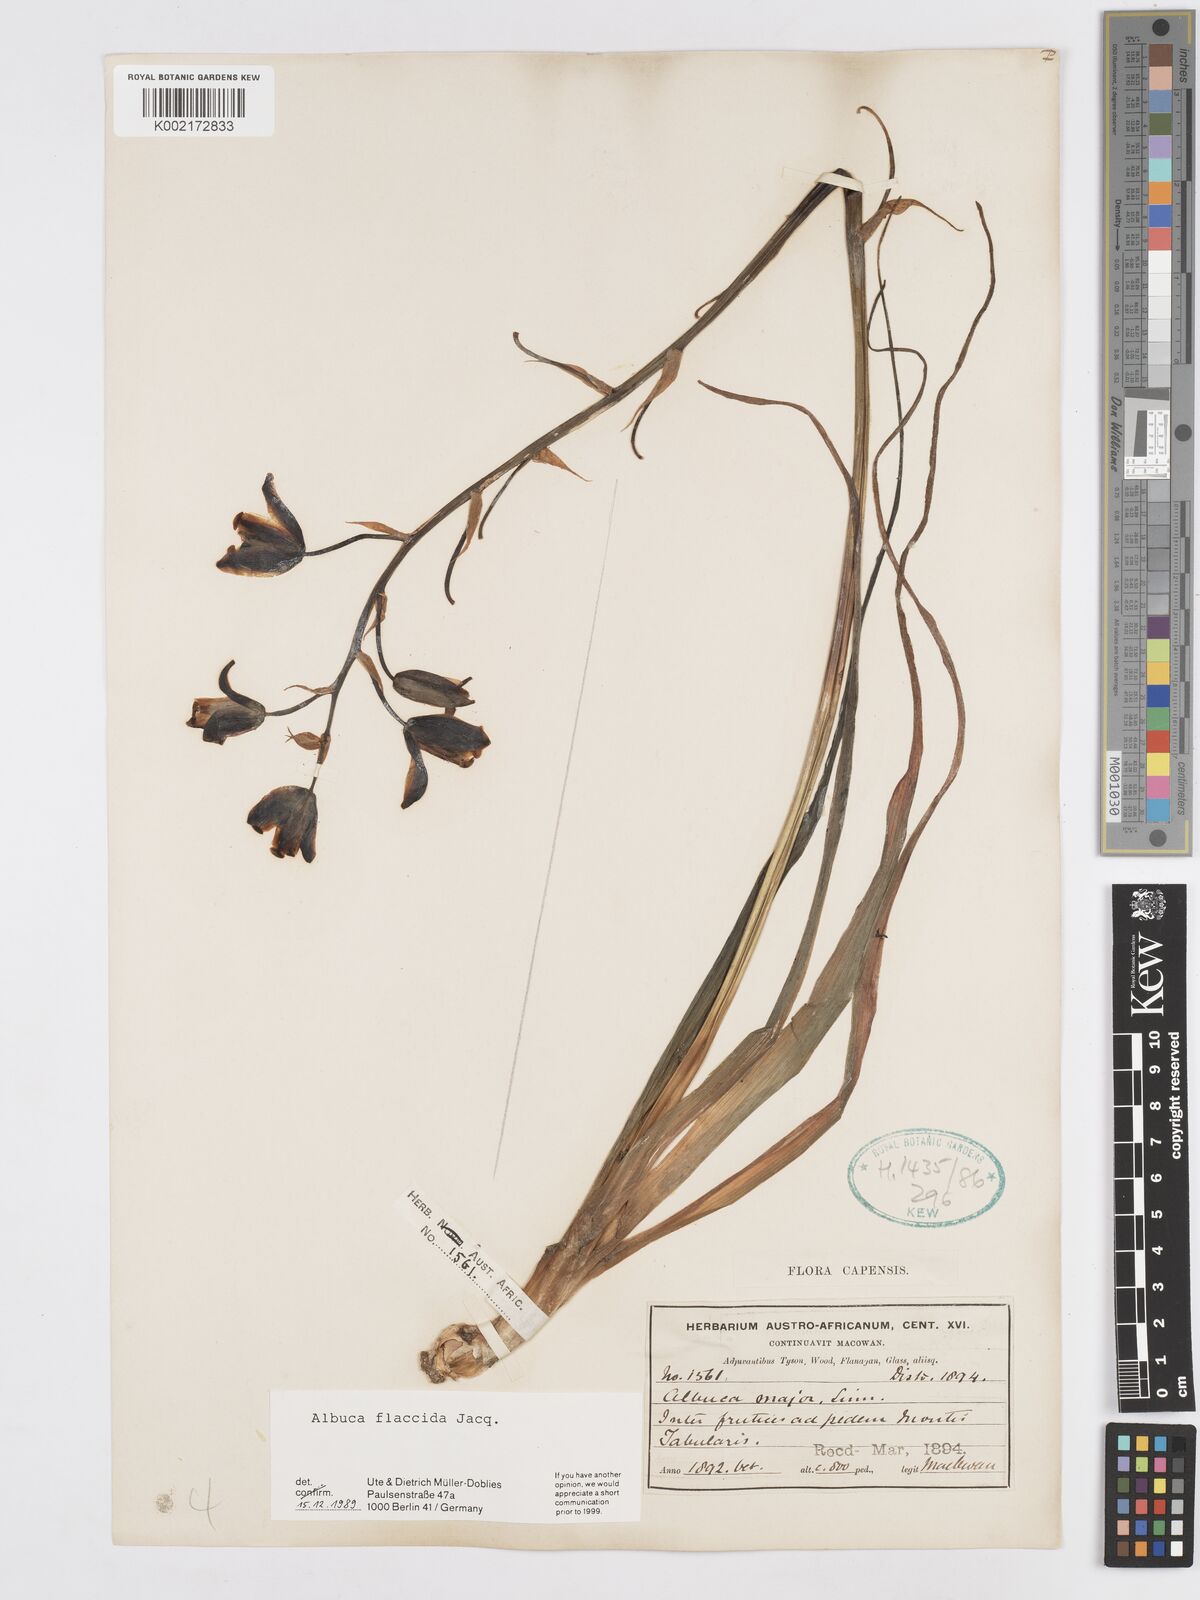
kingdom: Plantae
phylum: Tracheophyta
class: Liliopsida
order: Asparagales
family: Asparagaceae
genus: Albuca
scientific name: Albuca flaccida
